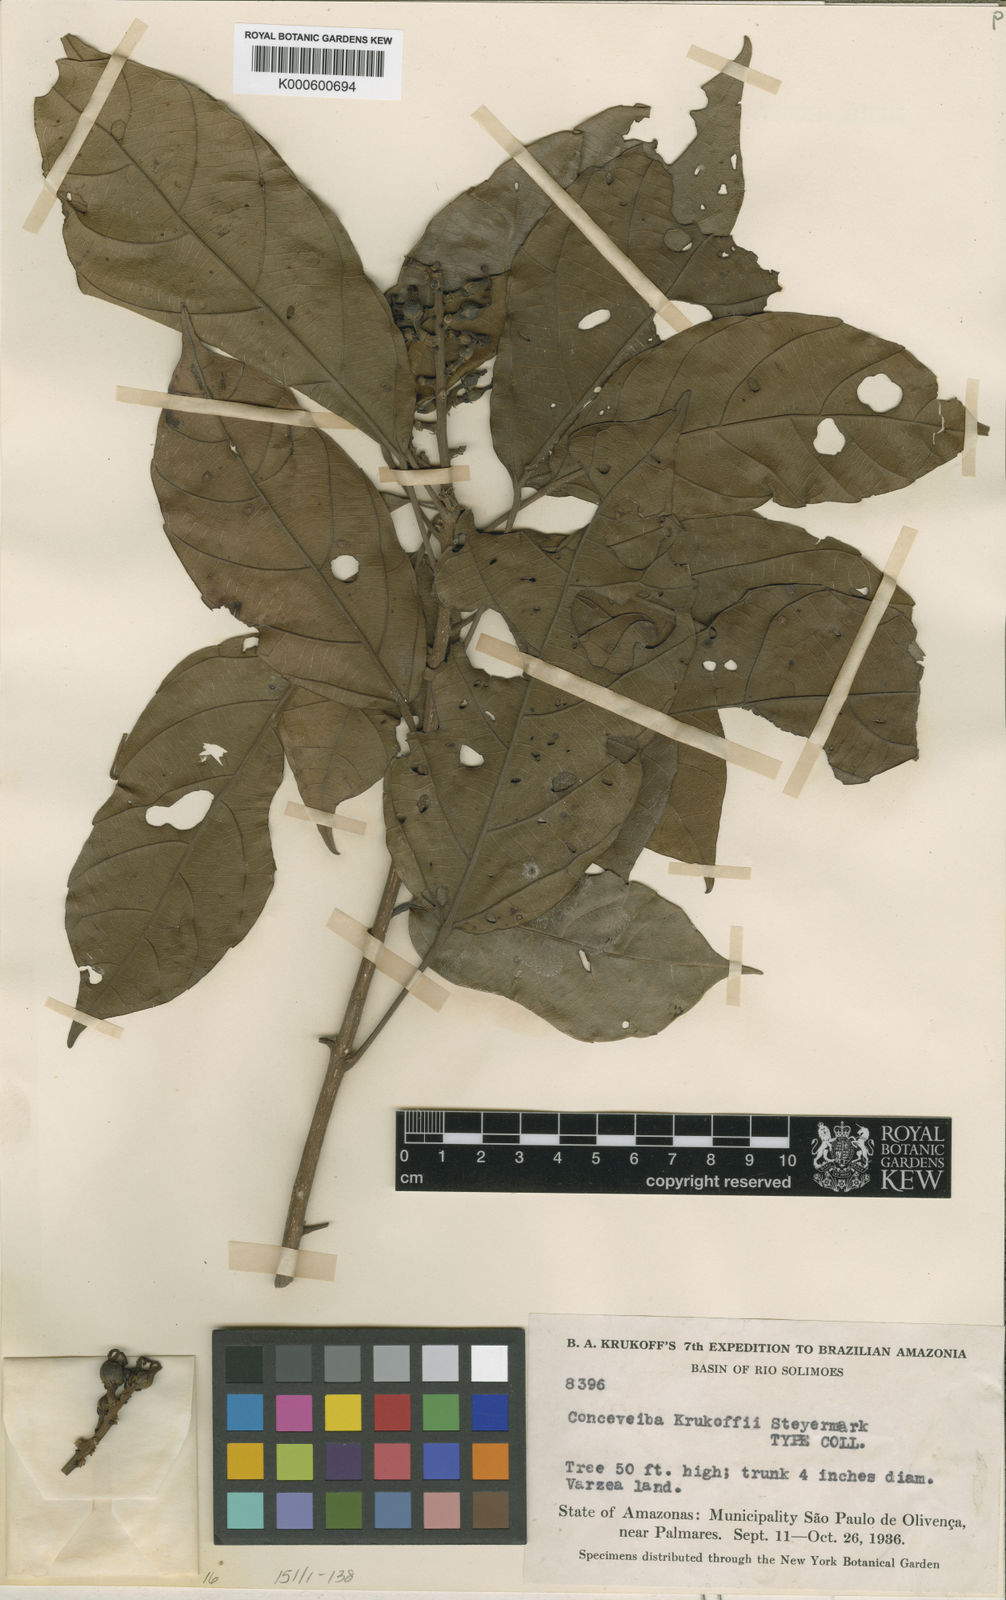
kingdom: Plantae
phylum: Tracheophyta
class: Magnoliopsida
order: Malpighiales
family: Euphorbiaceae
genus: Conceveiba
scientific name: Conceveiba krukoffii
